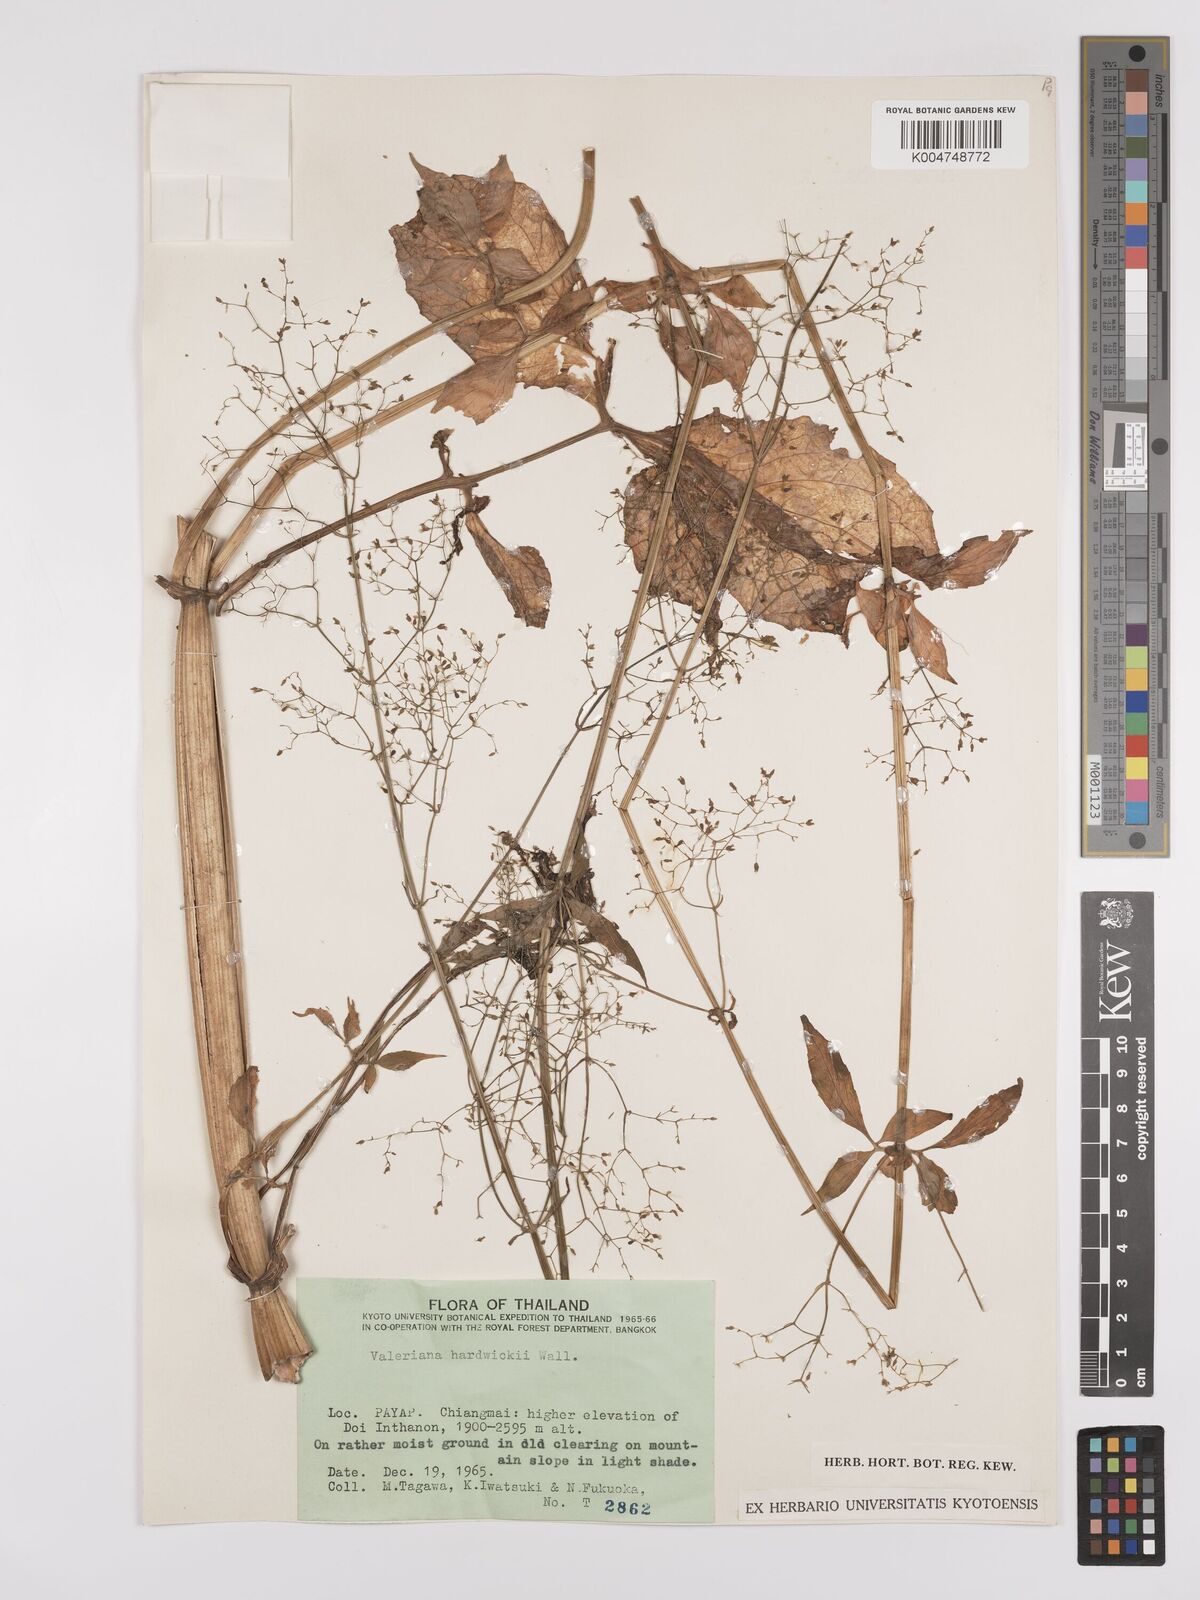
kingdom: Plantae
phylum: Tracheophyta
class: Magnoliopsida
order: Dipsacales
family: Caprifoliaceae
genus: Valeriana
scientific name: Valeriana hardwickei
